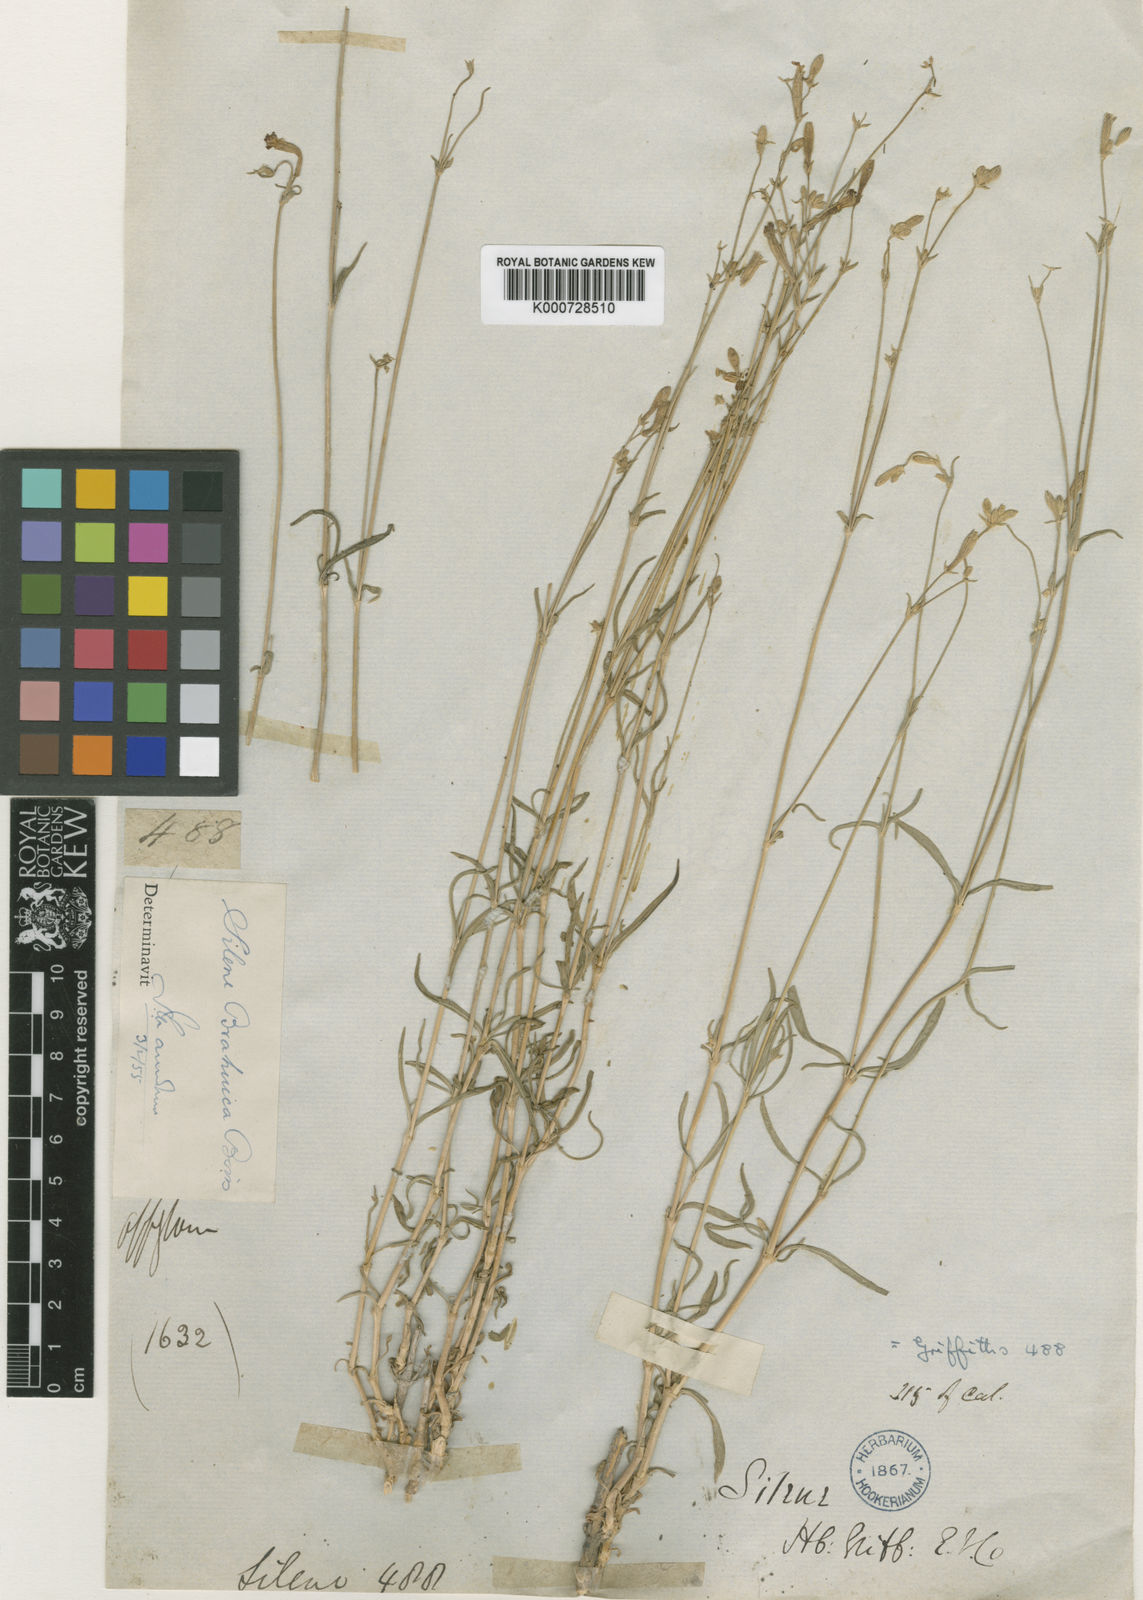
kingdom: Plantae
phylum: Tracheophyta
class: Magnoliopsida
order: Caryophyllales
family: Caryophyllaceae
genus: Silene
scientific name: Silene brahuica
